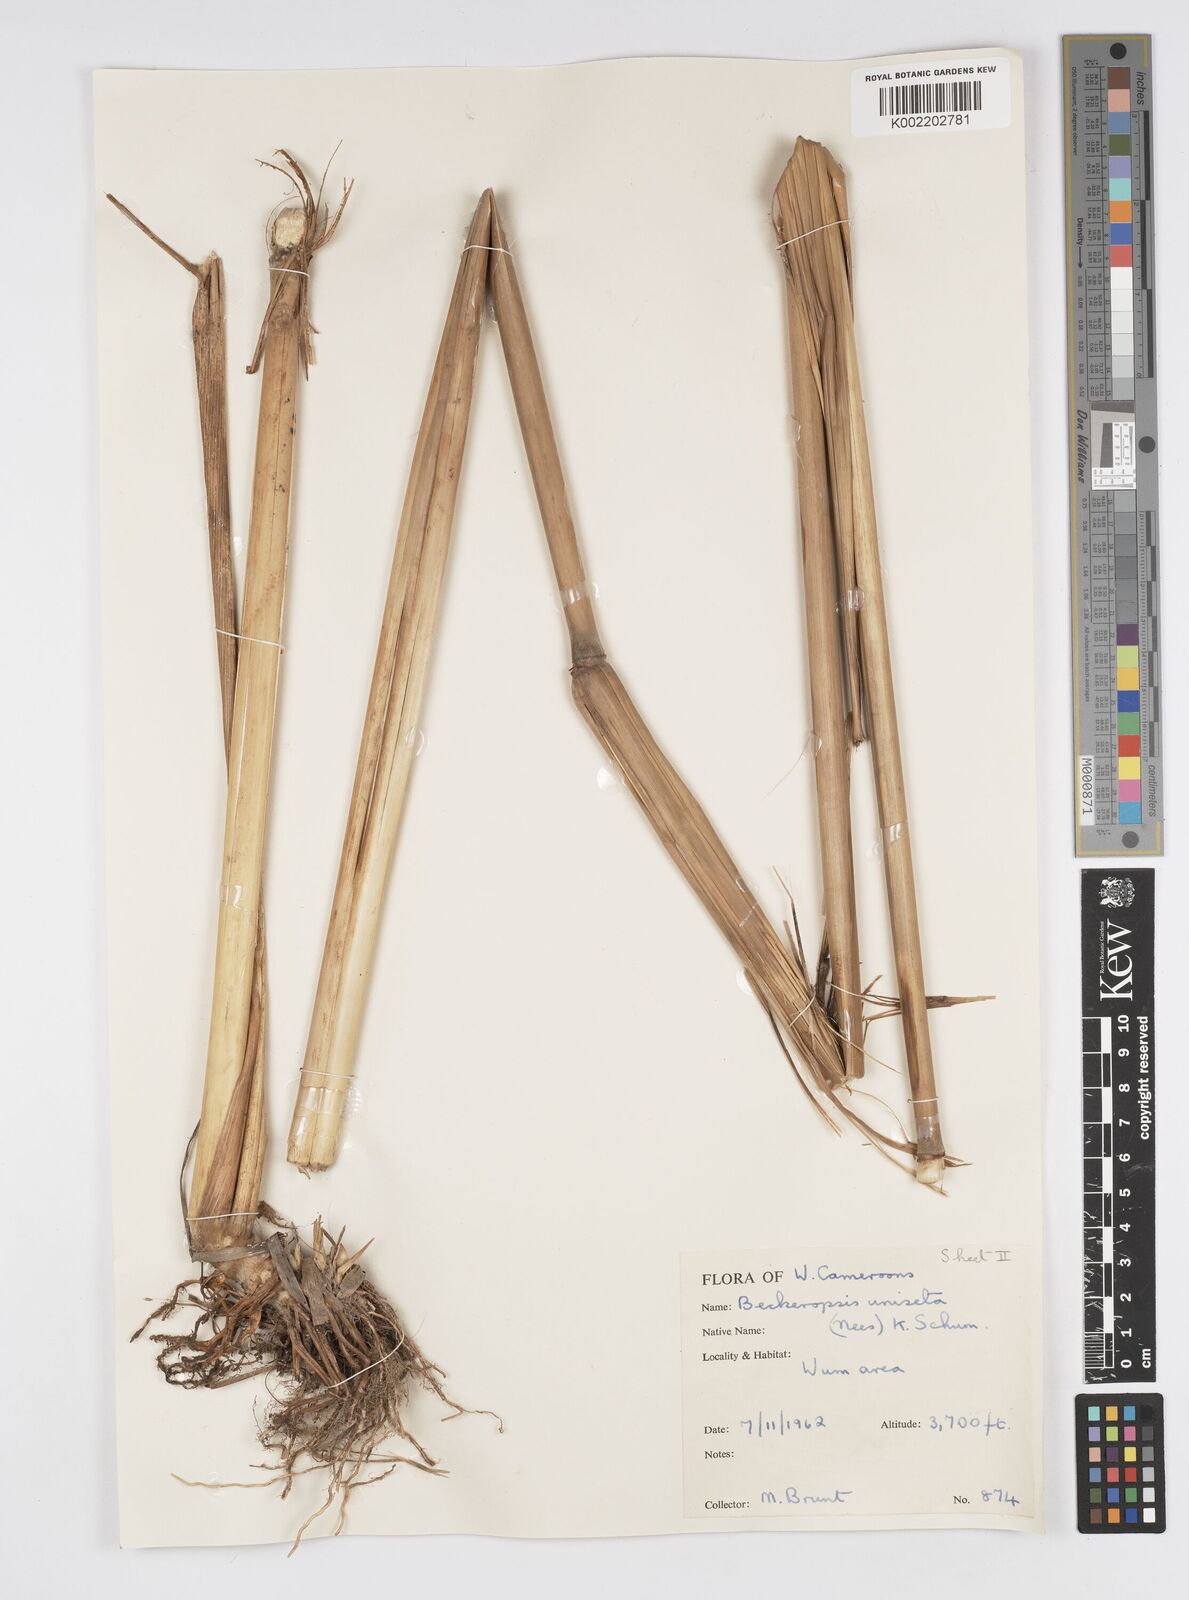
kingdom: Plantae
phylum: Tracheophyta
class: Liliopsida
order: Poales
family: Poaceae
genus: Cenchrus
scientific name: Cenchrus unisetus
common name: Natal grass
